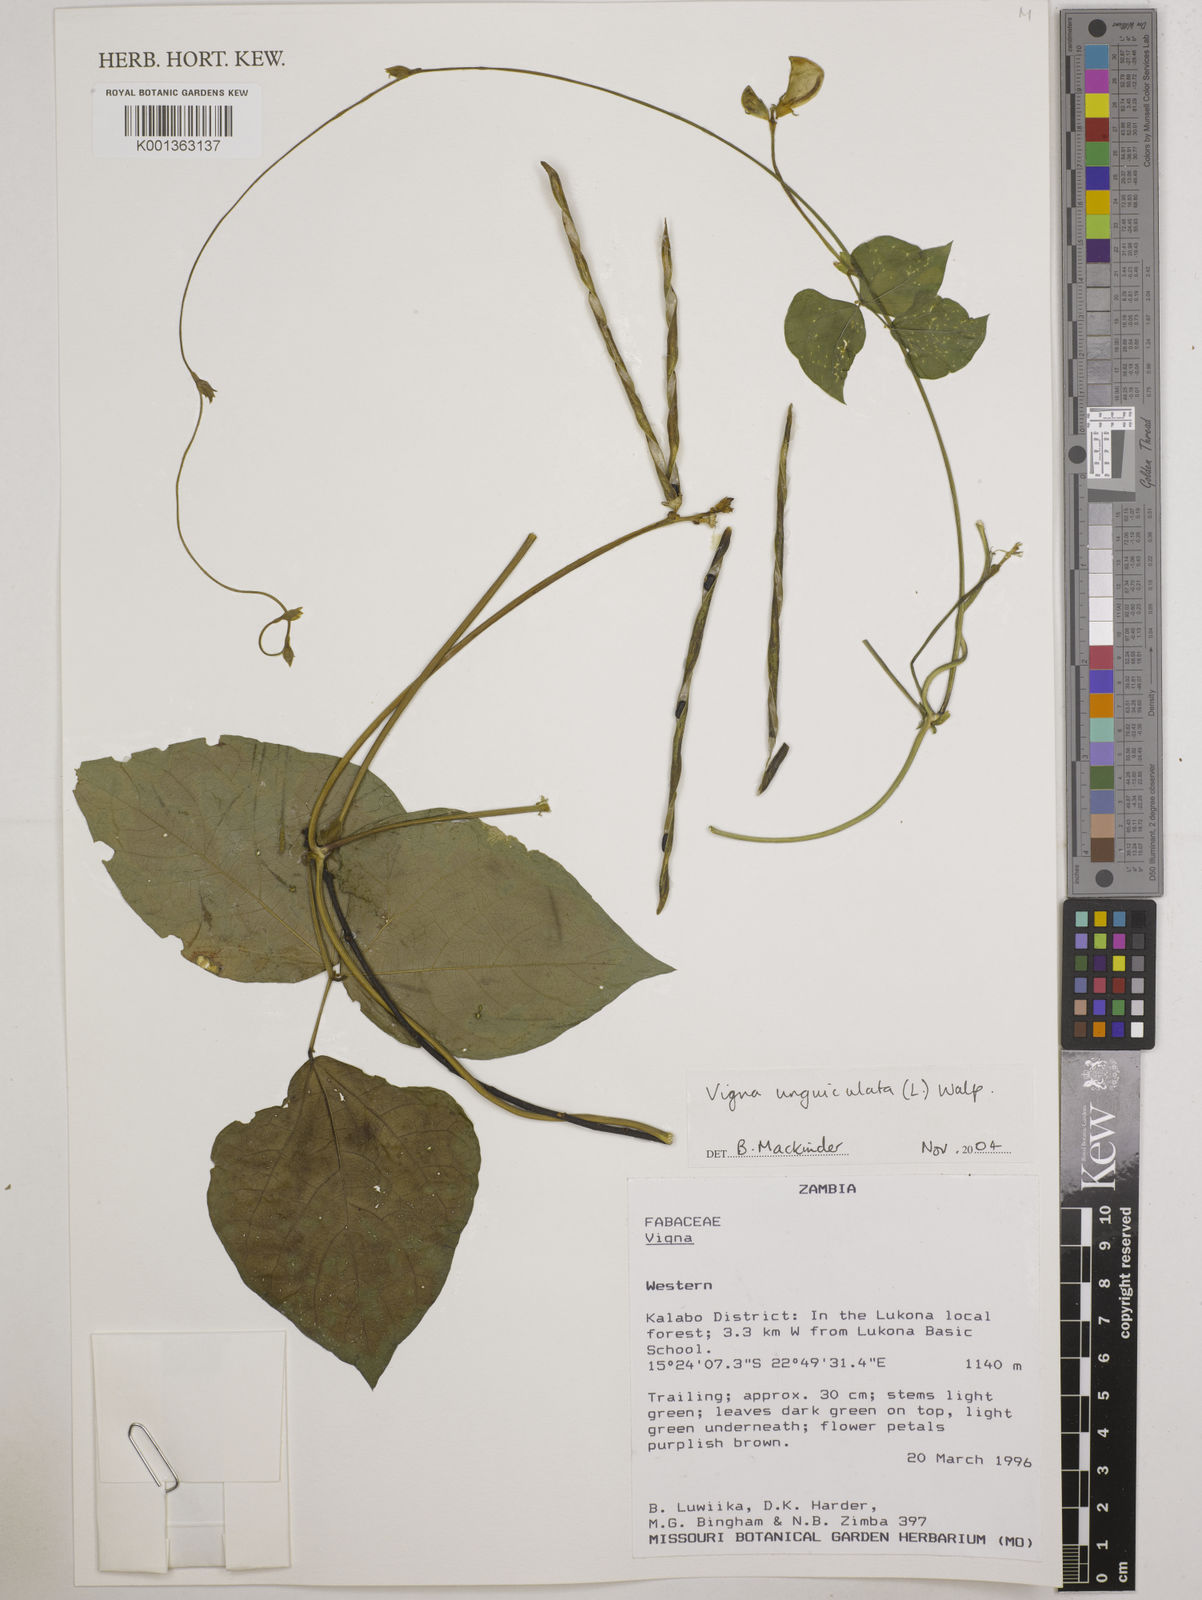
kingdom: Plantae
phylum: Tracheophyta
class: Magnoliopsida
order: Fabales
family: Fabaceae
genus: Vigna
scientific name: Vigna unguiculata
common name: Cowpea
